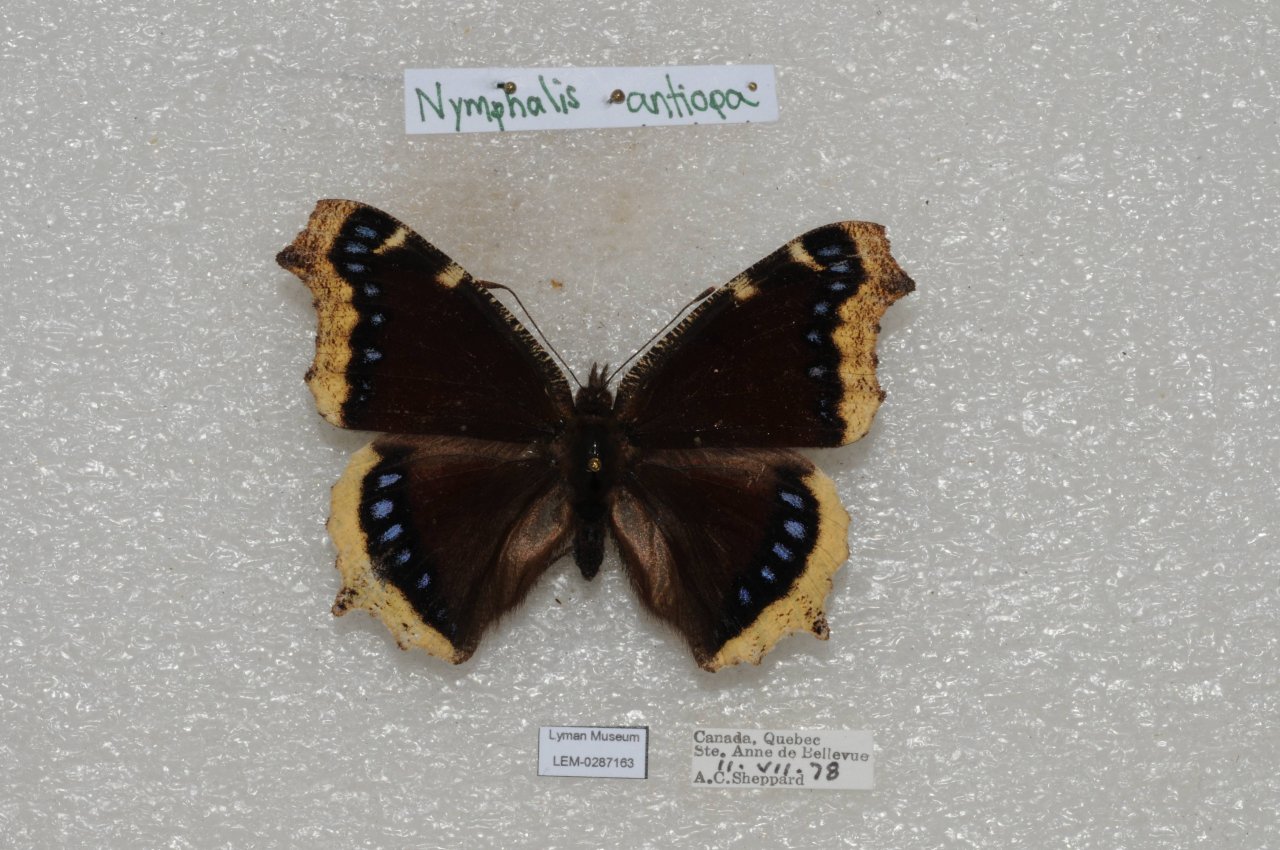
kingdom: Animalia
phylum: Arthropoda
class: Insecta
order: Lepidoptera
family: Nymphalidae
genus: Nymphalis
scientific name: Nymphalis antiopa
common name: Mourning Cloak
